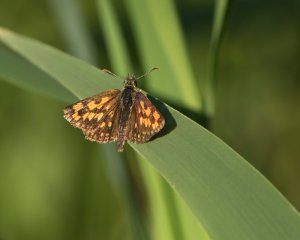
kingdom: Animalia
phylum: Arthropoda
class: Insecta
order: Lepidoptera
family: Hesperiidae
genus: Carterocephalus
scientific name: Carterocephalus palaemon
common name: Chequered Skipper
